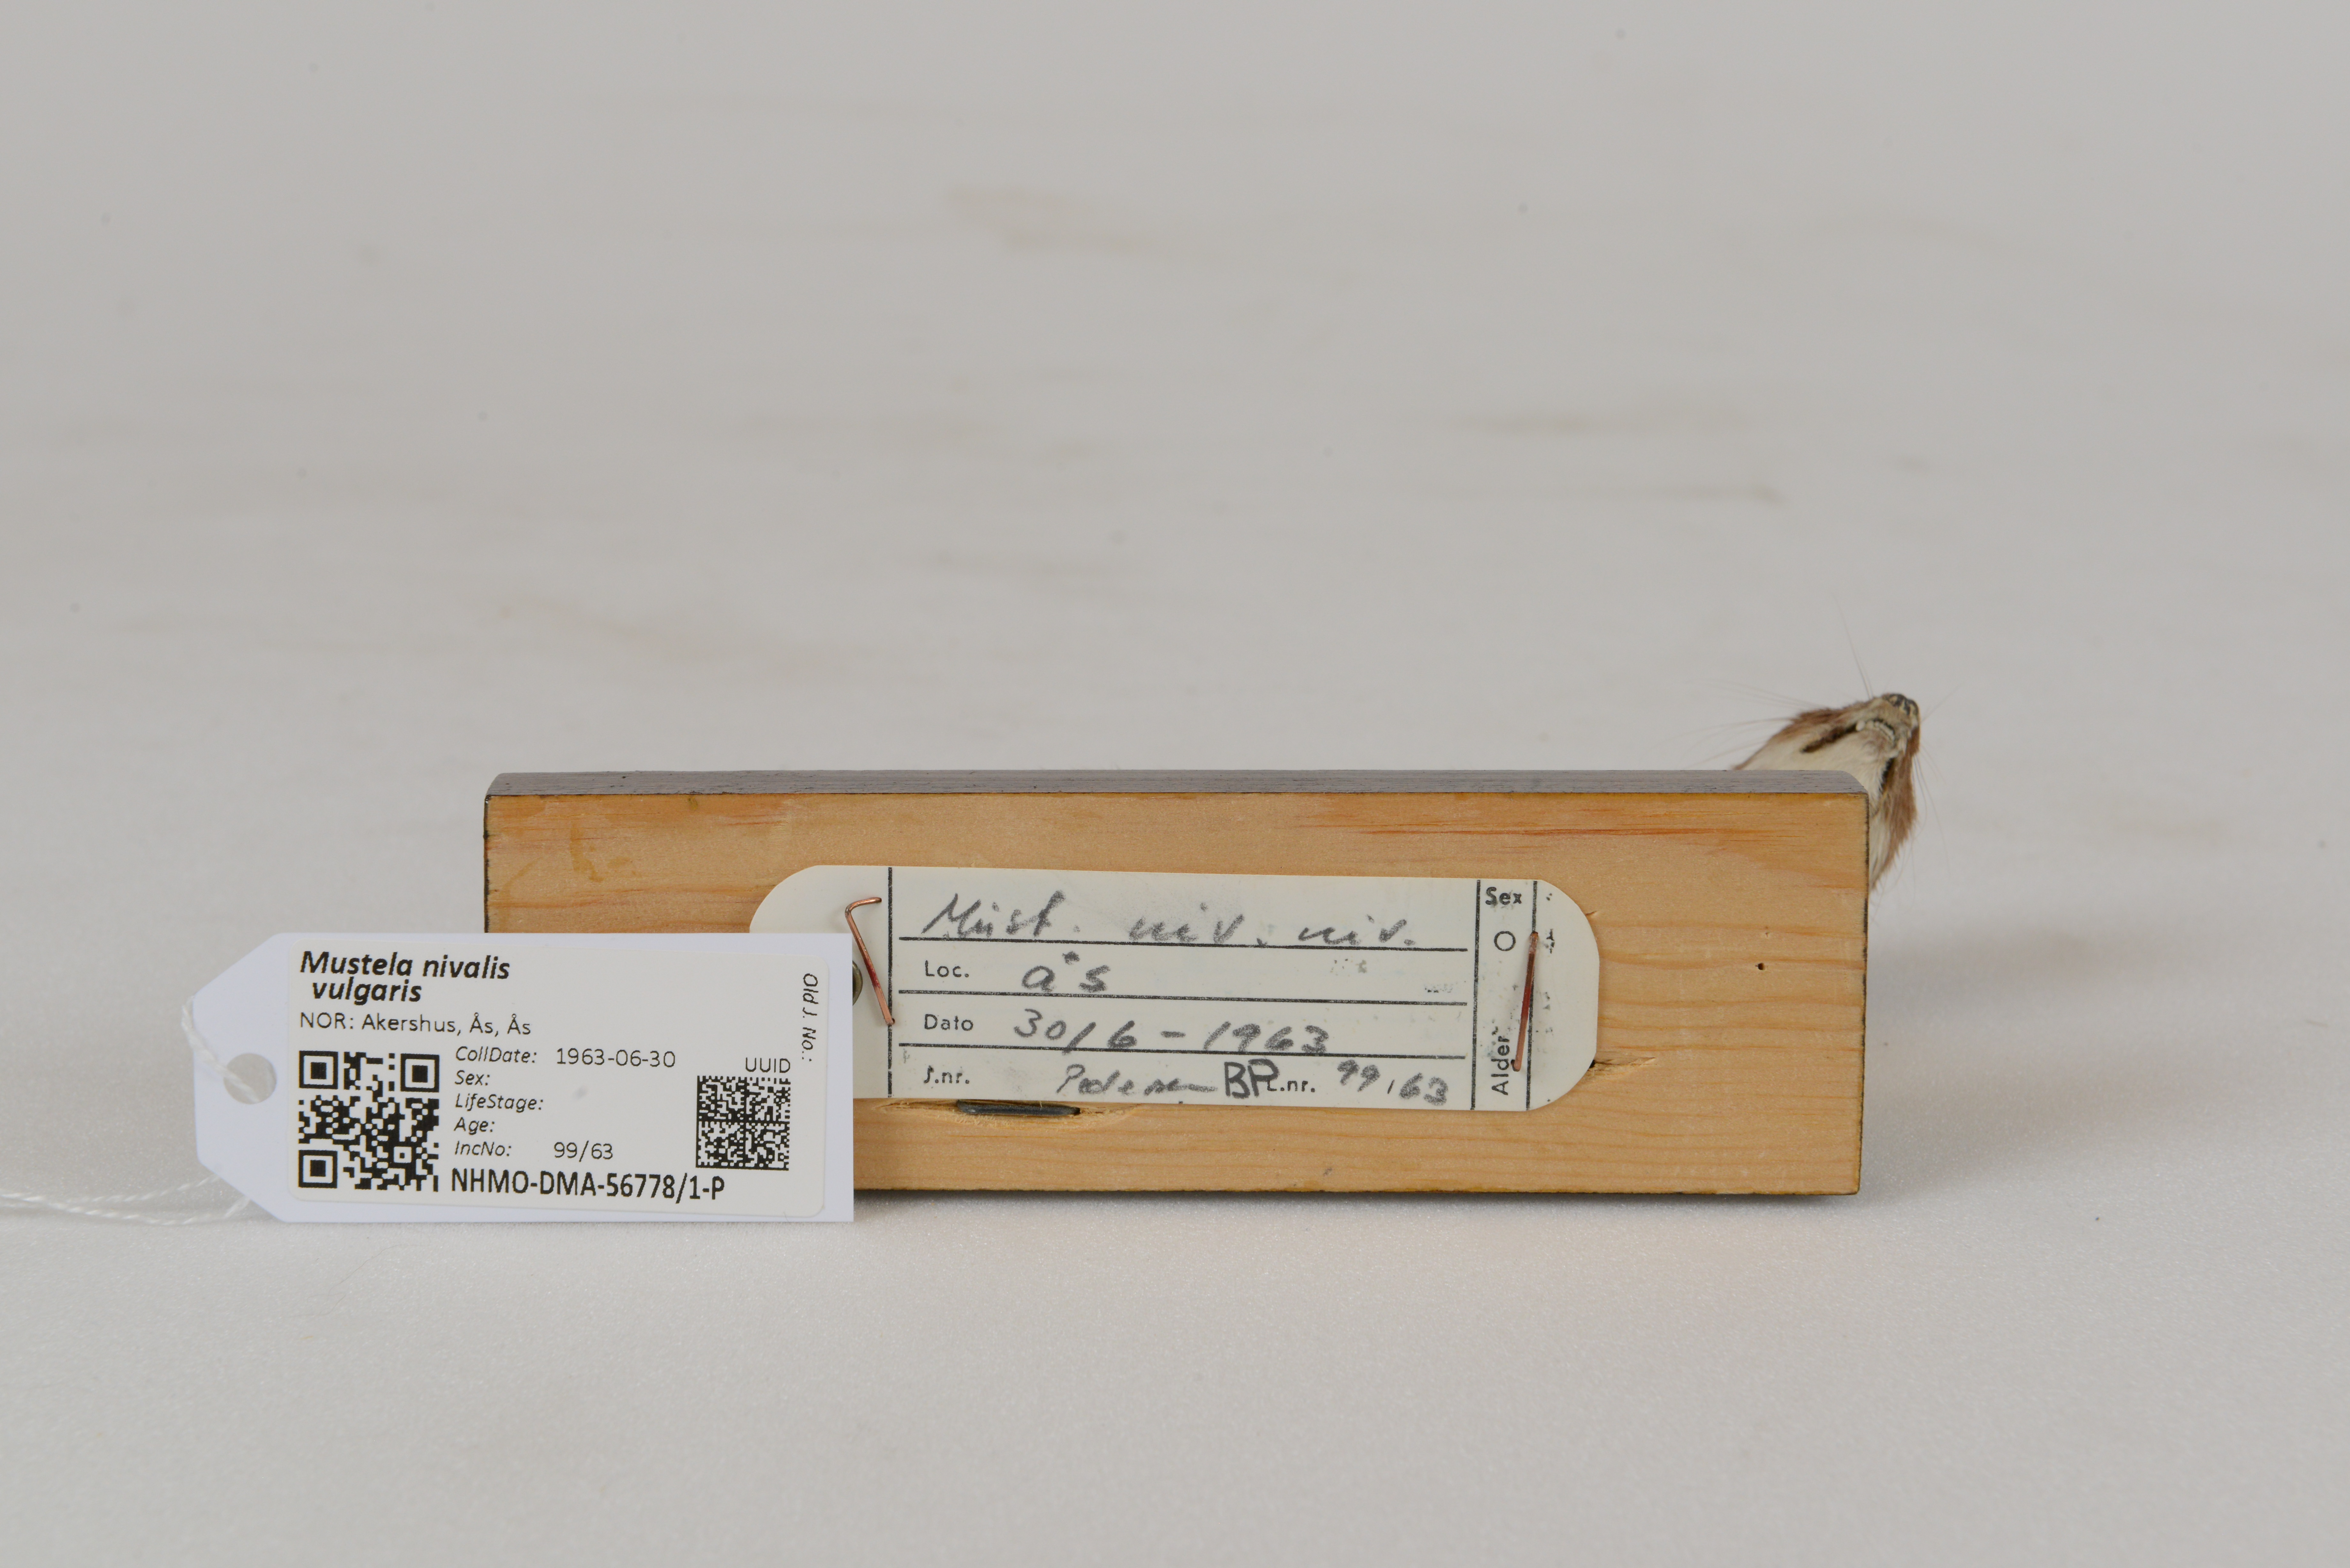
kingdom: Animalia
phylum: Chordata
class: Mammalia
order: Carnivora
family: Mustelidae
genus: Mustela
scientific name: Mustela nivalis
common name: Least weasel
